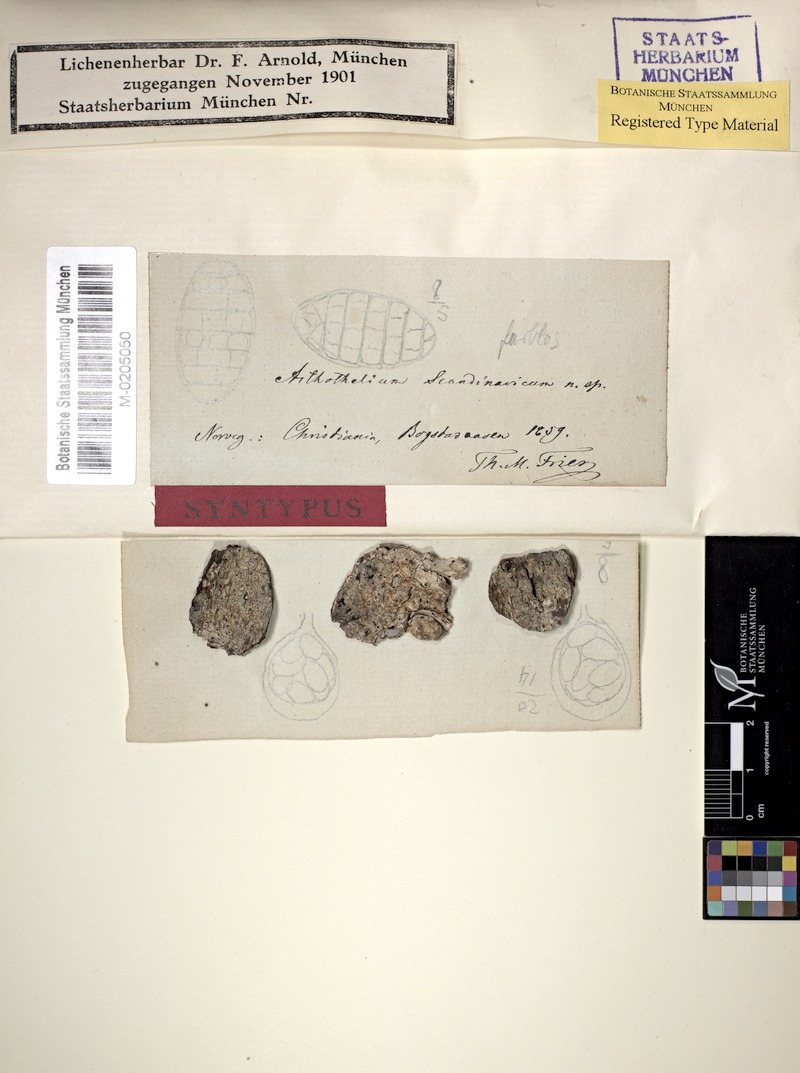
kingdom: Fungi
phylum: Ascomycota
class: Arthoniomycetes
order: Arthoniales
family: Arthoniaceae
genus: Arthothelium
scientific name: Arthothelium scandinavicum
